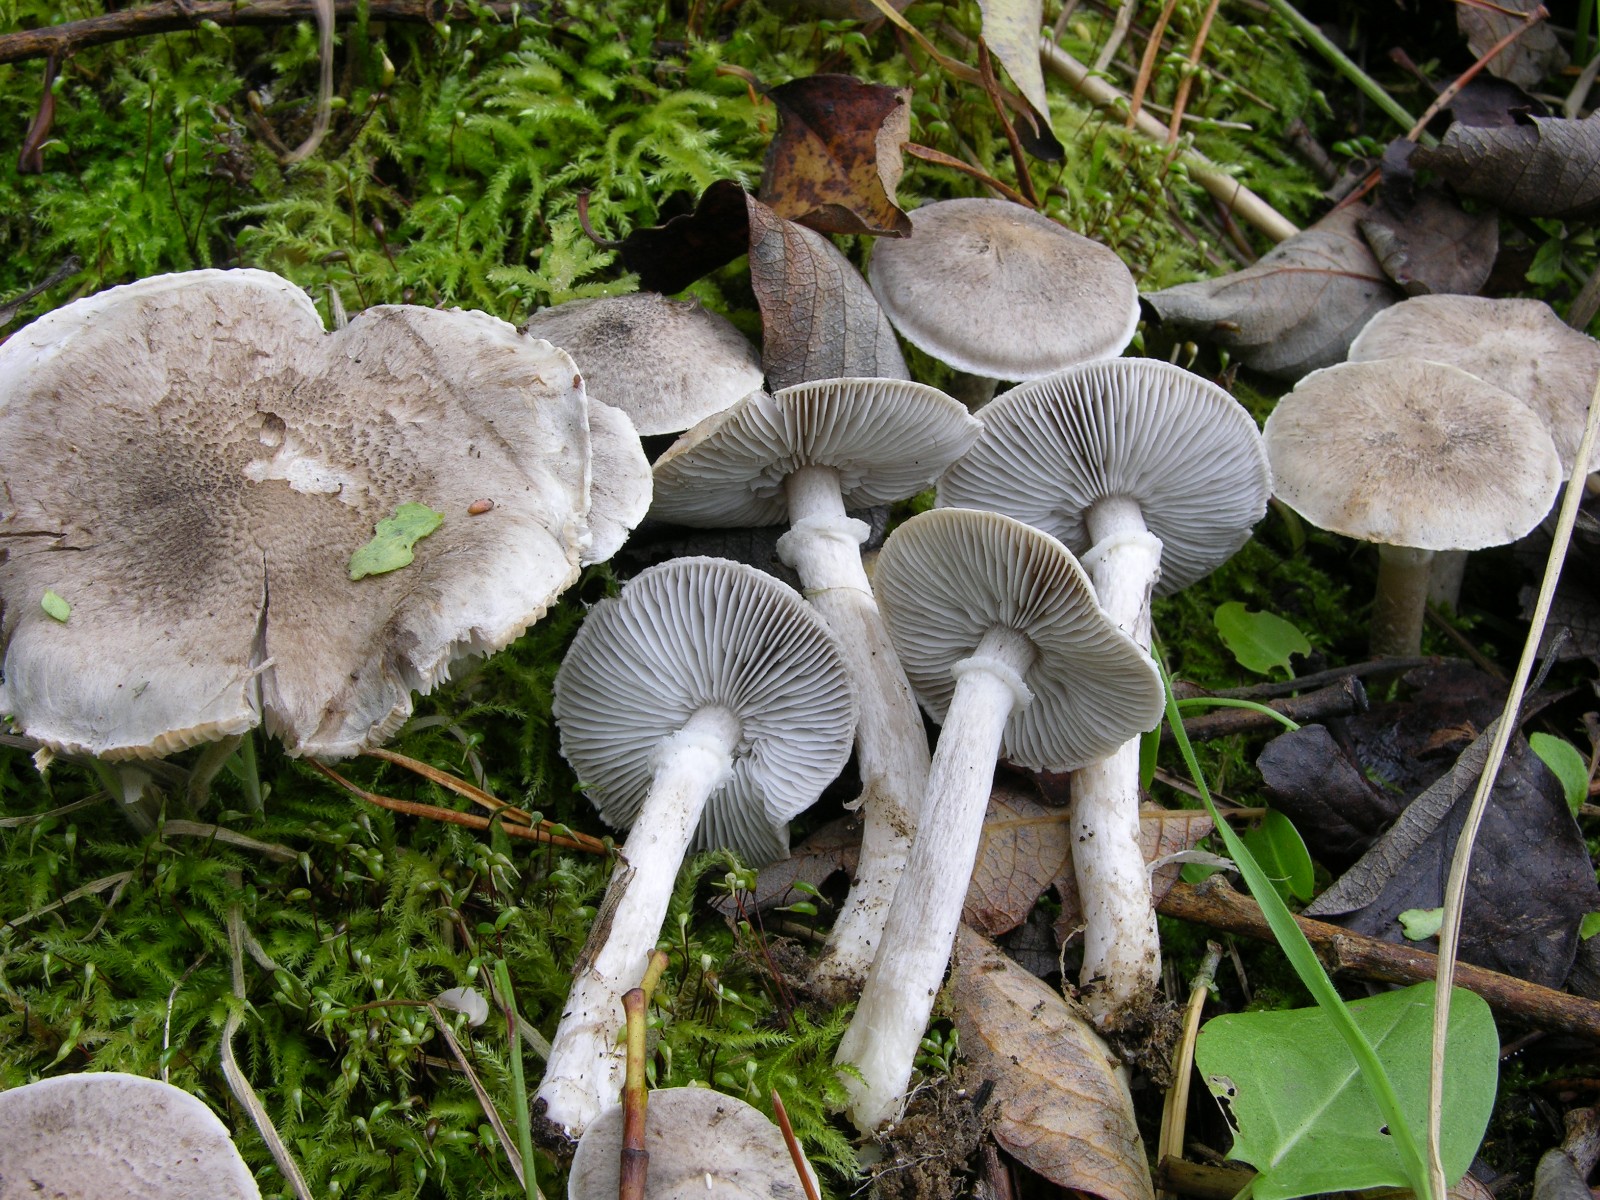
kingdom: Fungi
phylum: Basidiomycota
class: Agaricomycetes
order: Agaricales
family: Tricholomataceae
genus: Tricholoma
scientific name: Tricholoma cingulatum
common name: ring-ridderhat
